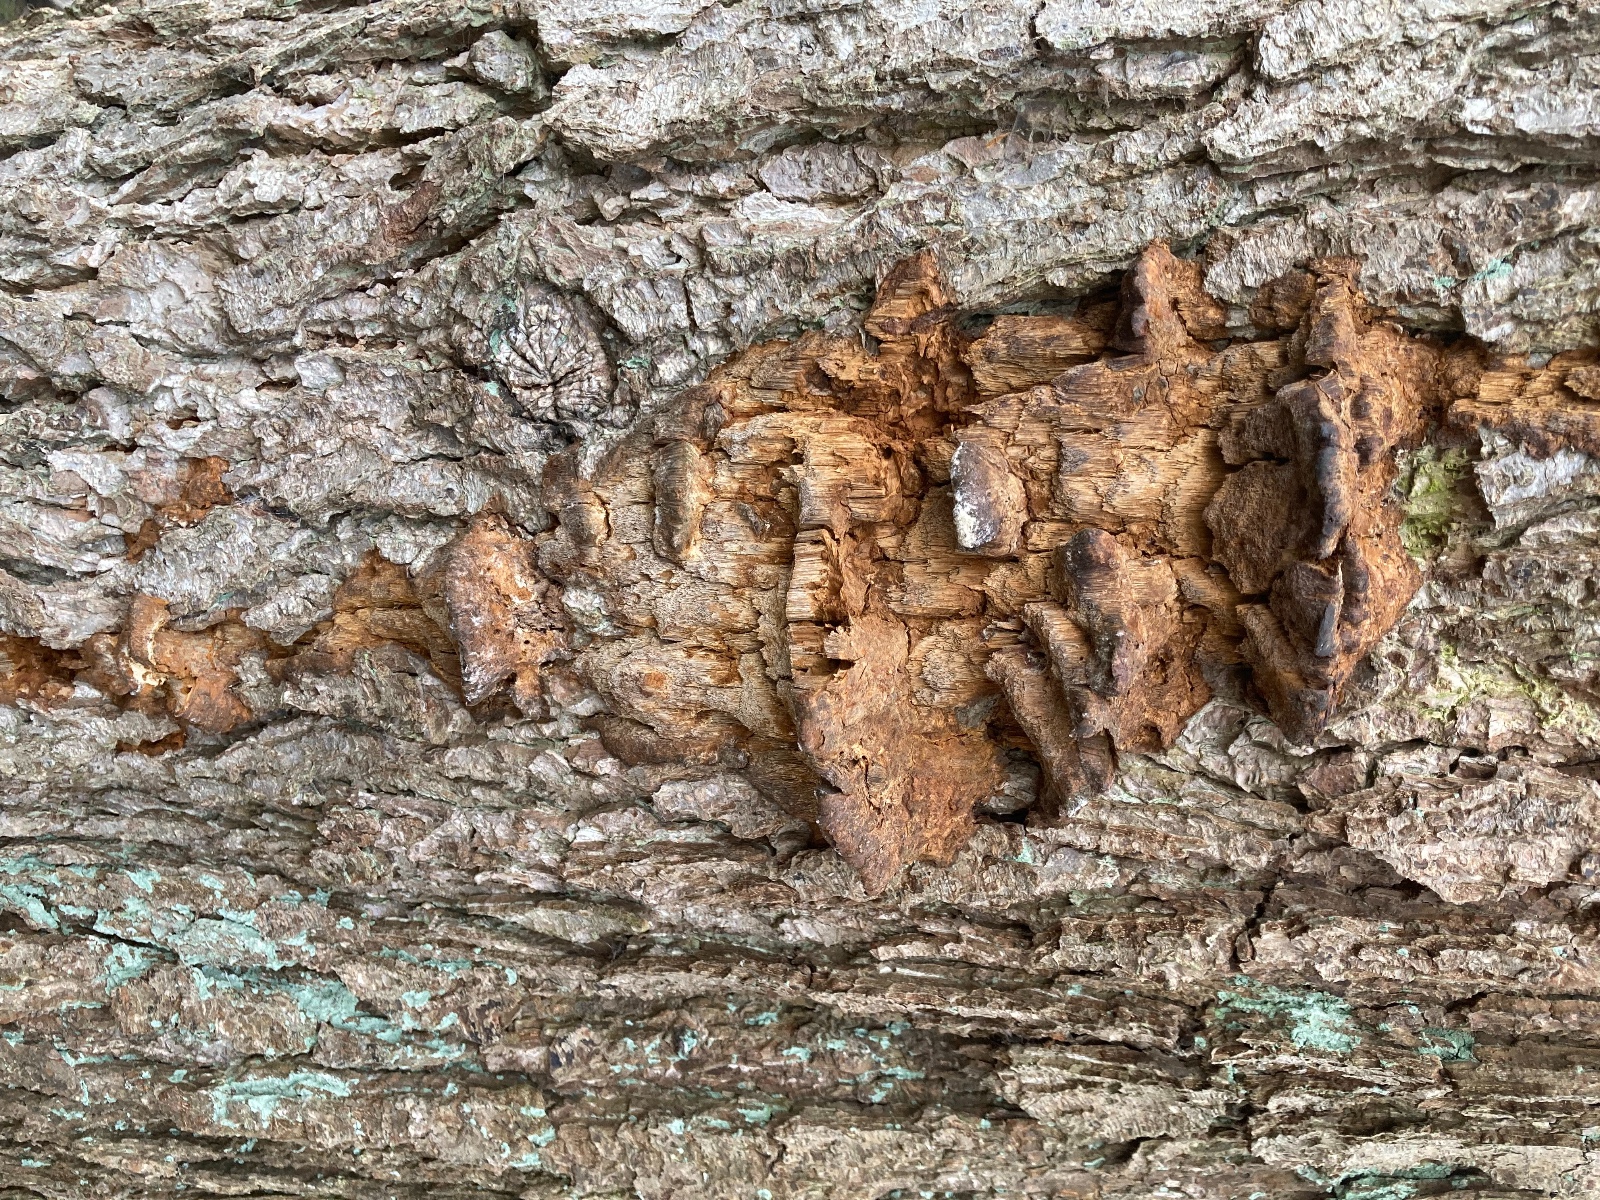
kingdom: Fungi
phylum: Basidiomycota
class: Agaricomycetes
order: Hymenochaetales
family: Hymenochaetaceae
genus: Xanthoporia
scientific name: Xanthoporia radiata
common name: elle-spejlporesvamp
